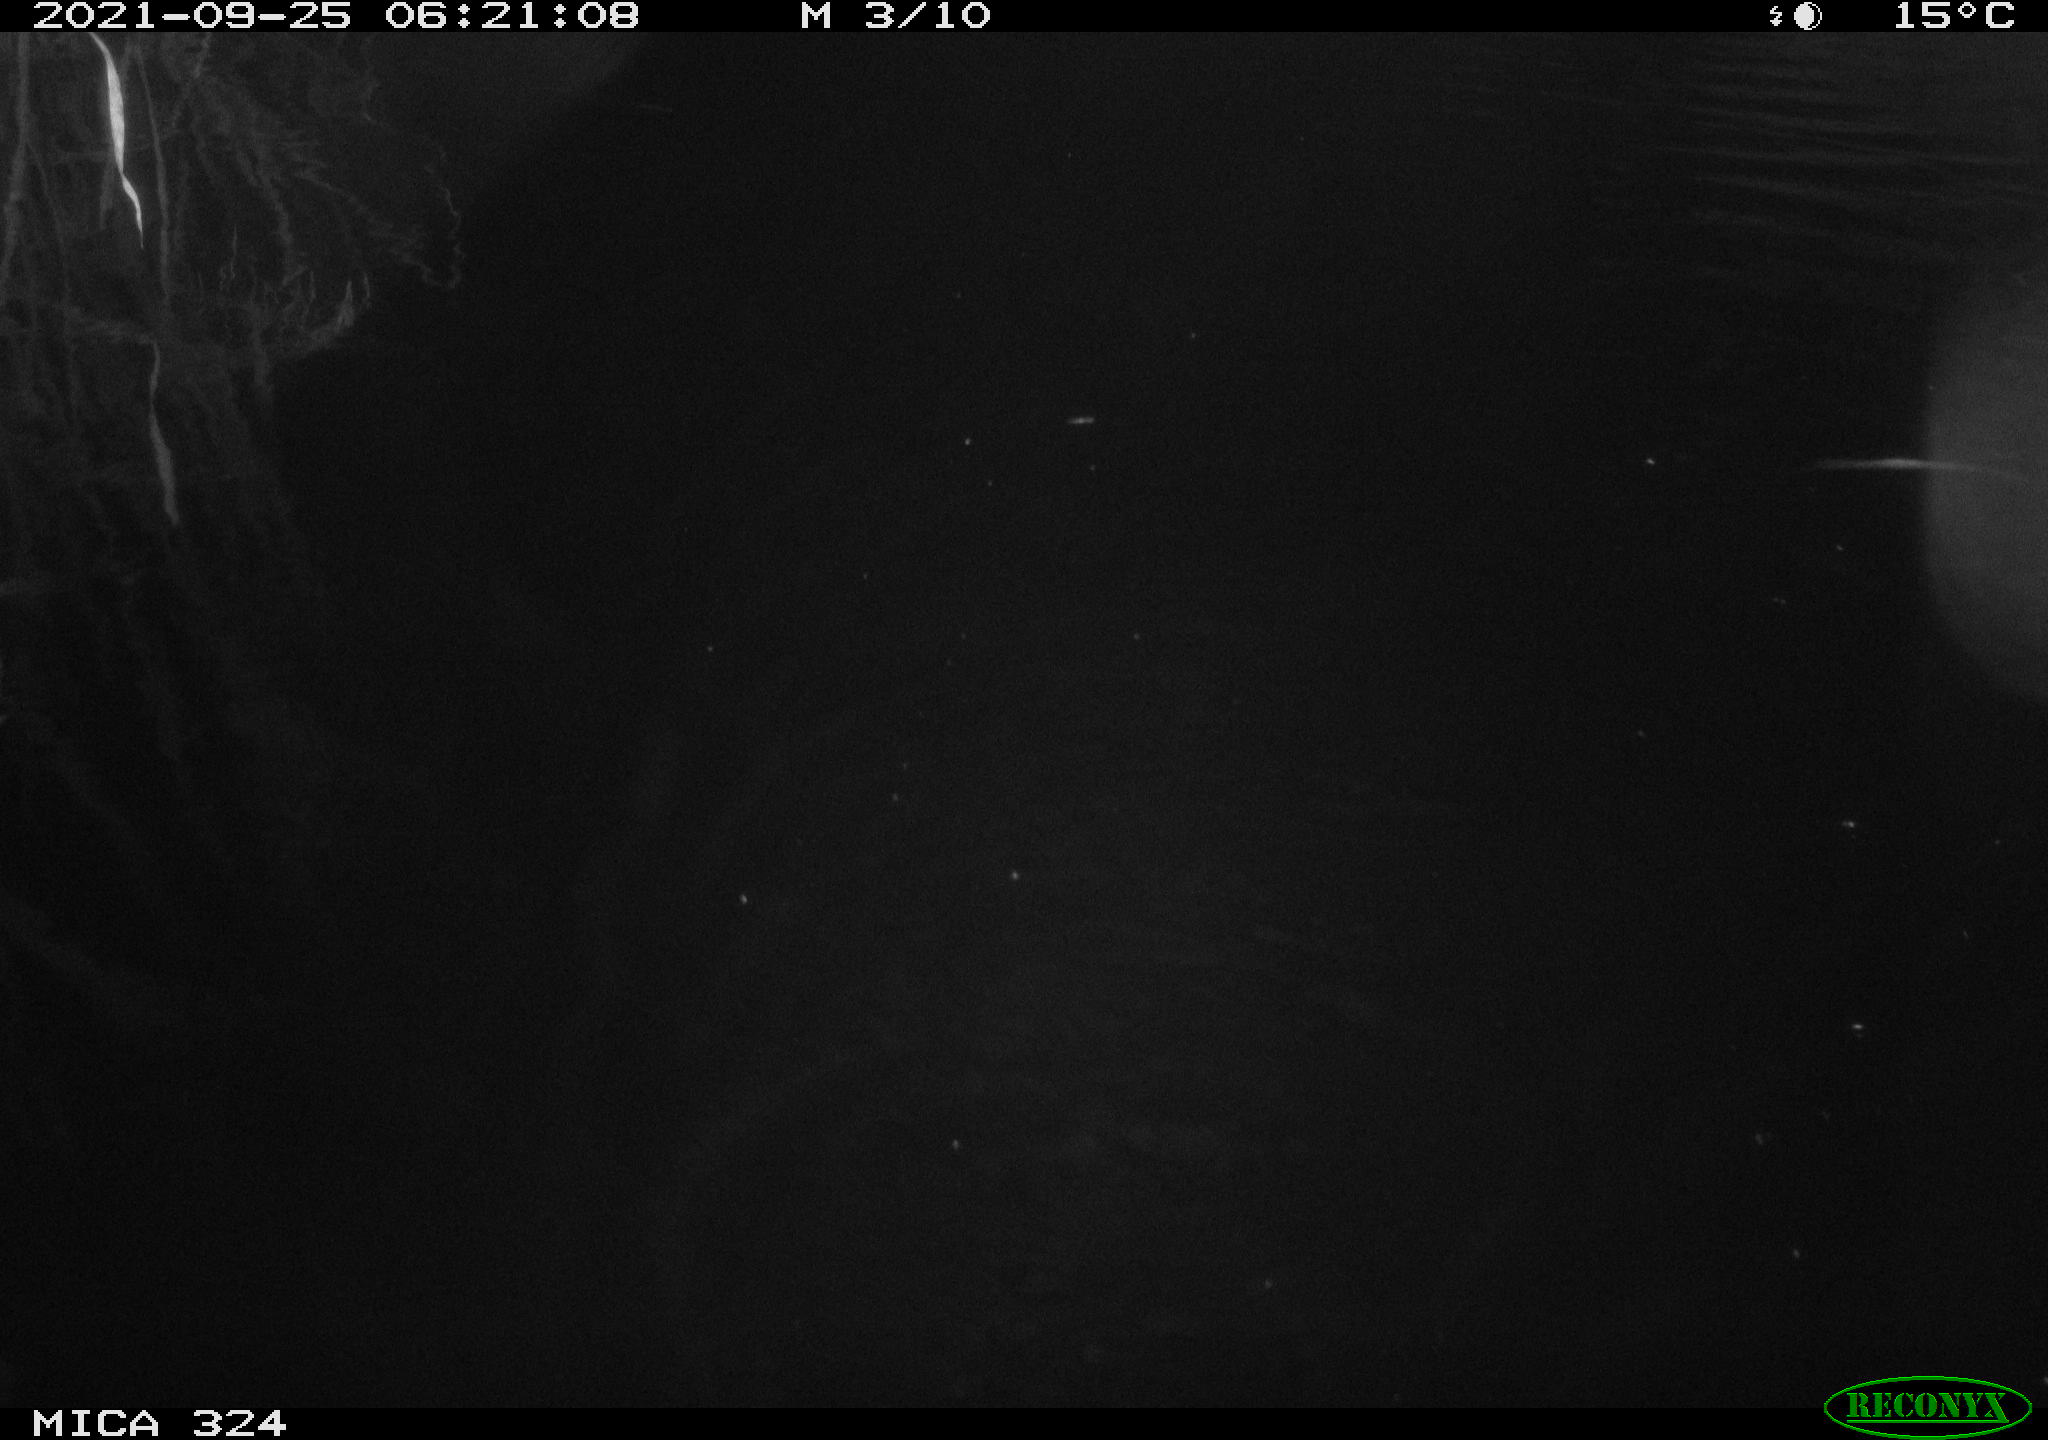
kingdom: Animalia
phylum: Chordata
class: Mammalia
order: Rodentia
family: Cricetidae
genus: Ondatra
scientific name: Ondatra zibethicus
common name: Muskrat
